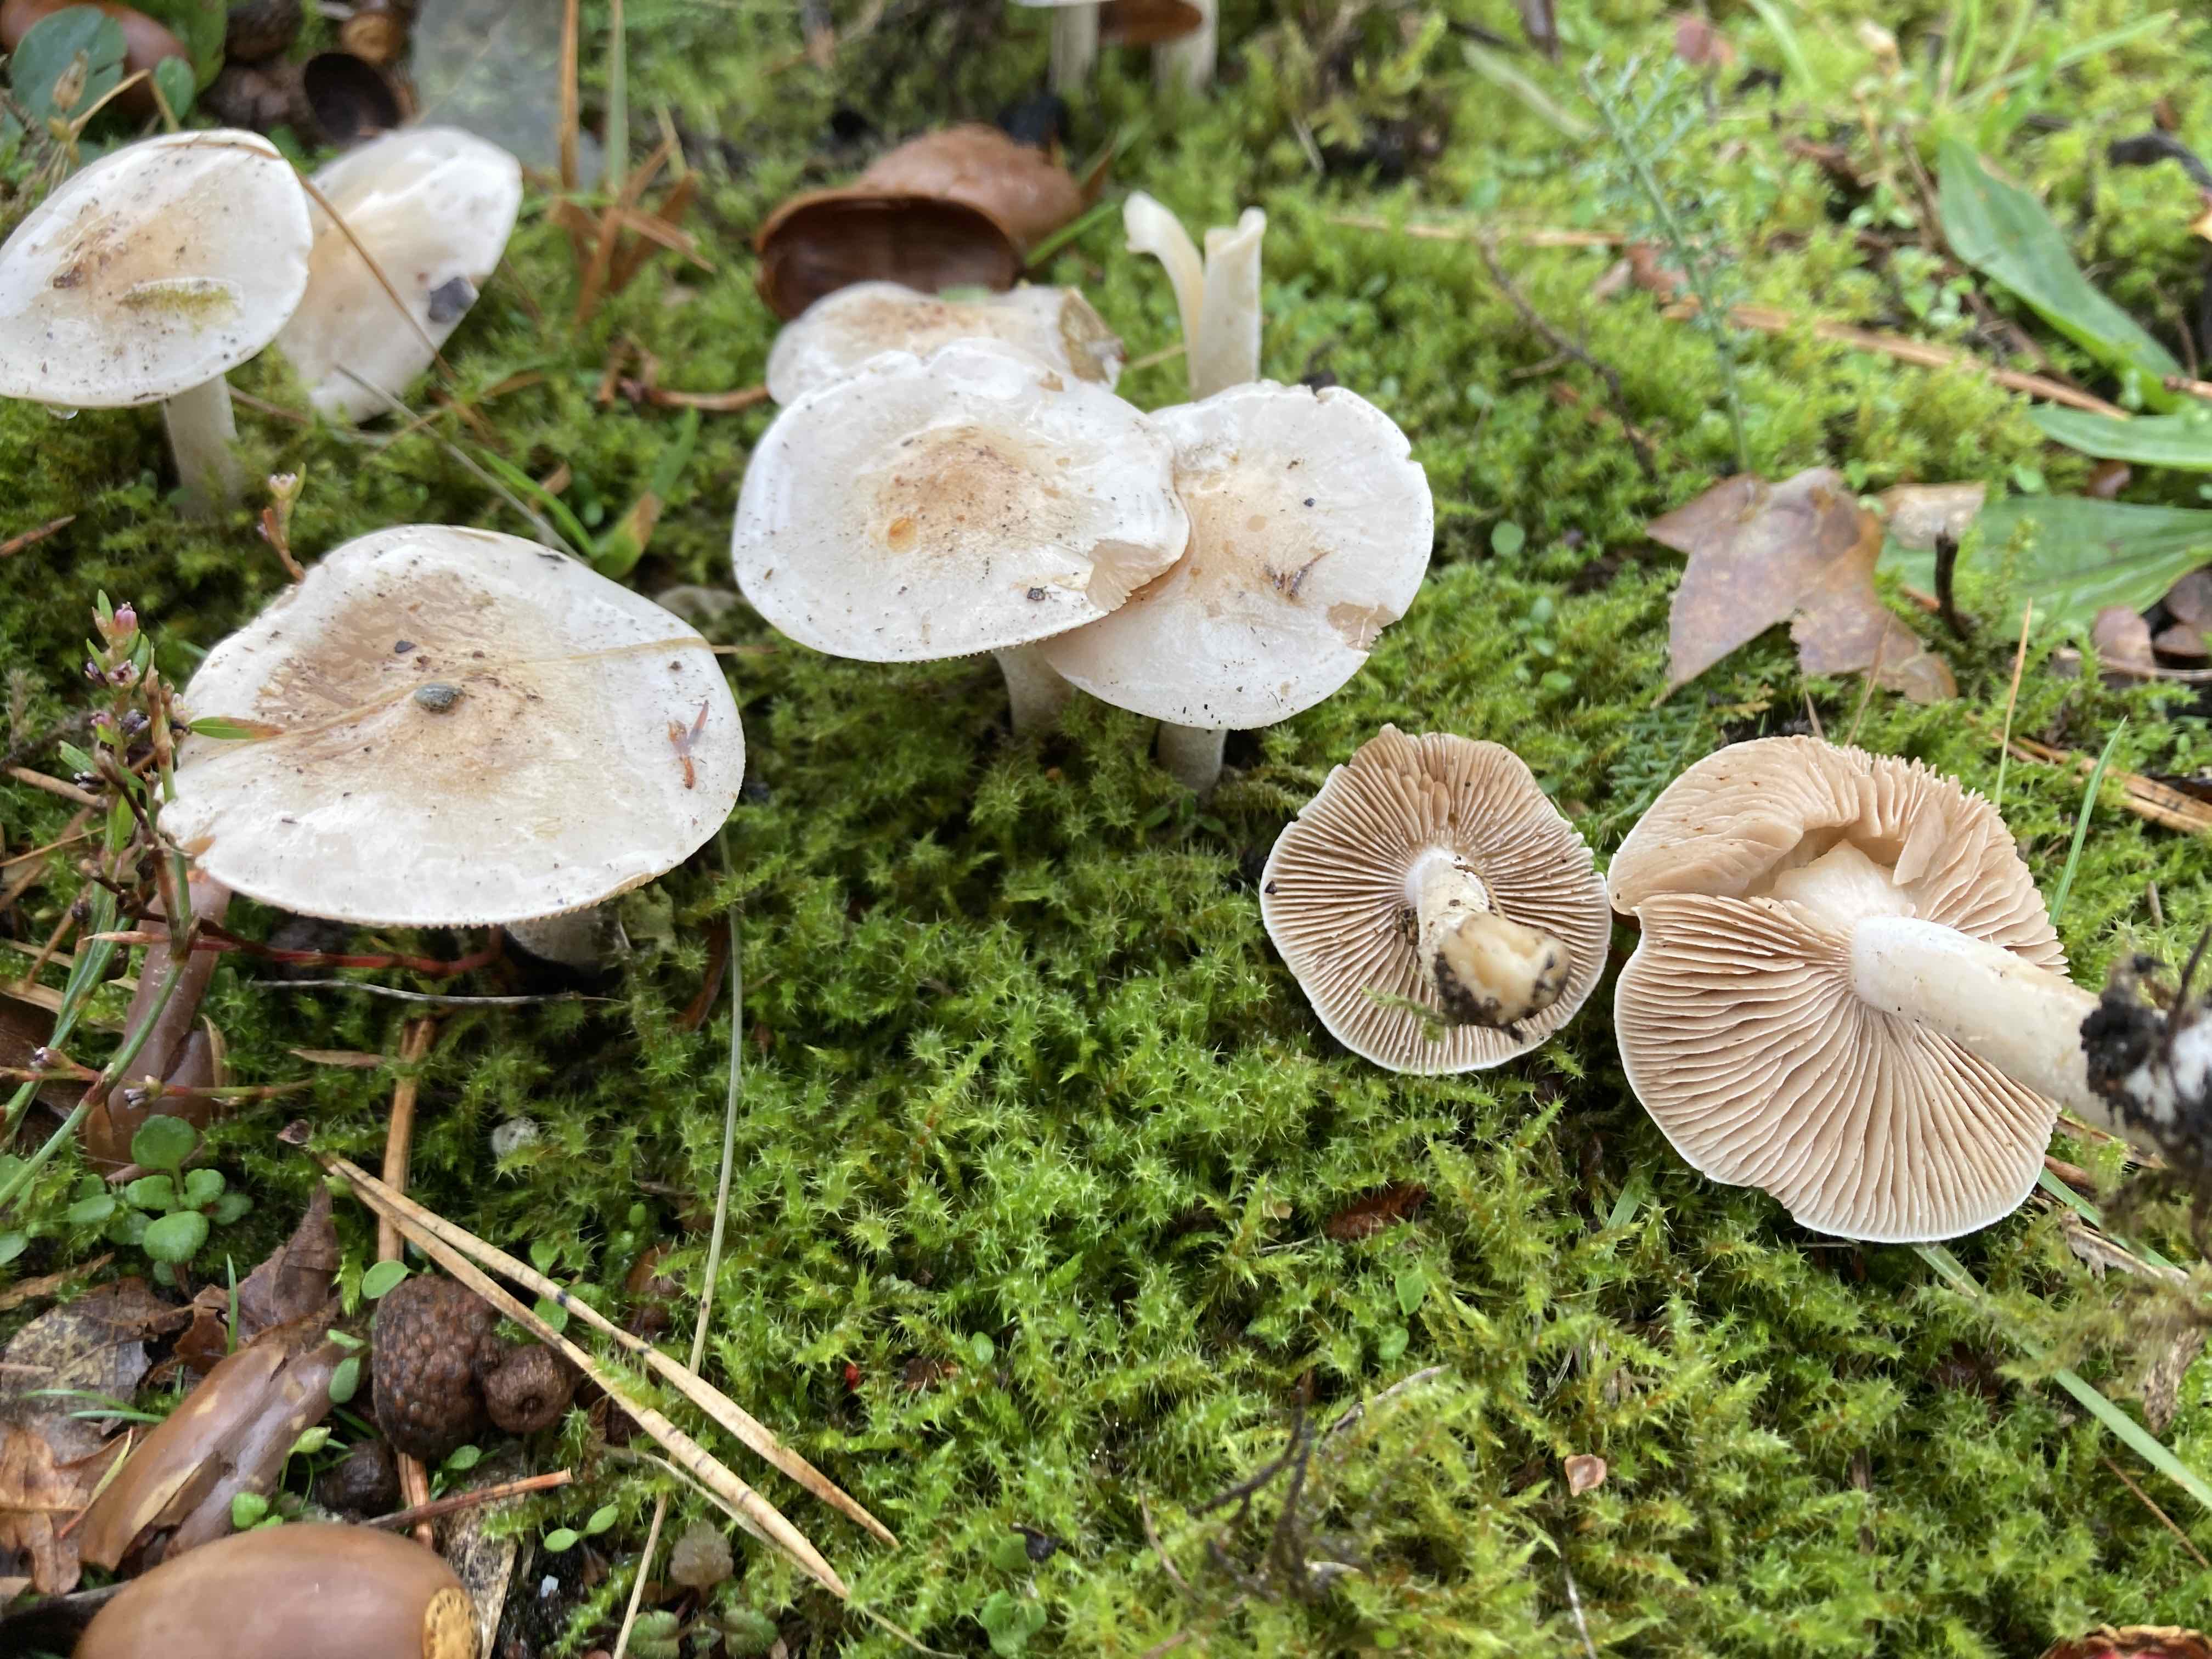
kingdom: Fungi
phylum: Basidiomycota
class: Agaricomycetes
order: Agaricales
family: Hymenogastraceae
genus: Hebeloma
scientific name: Hebeloma
